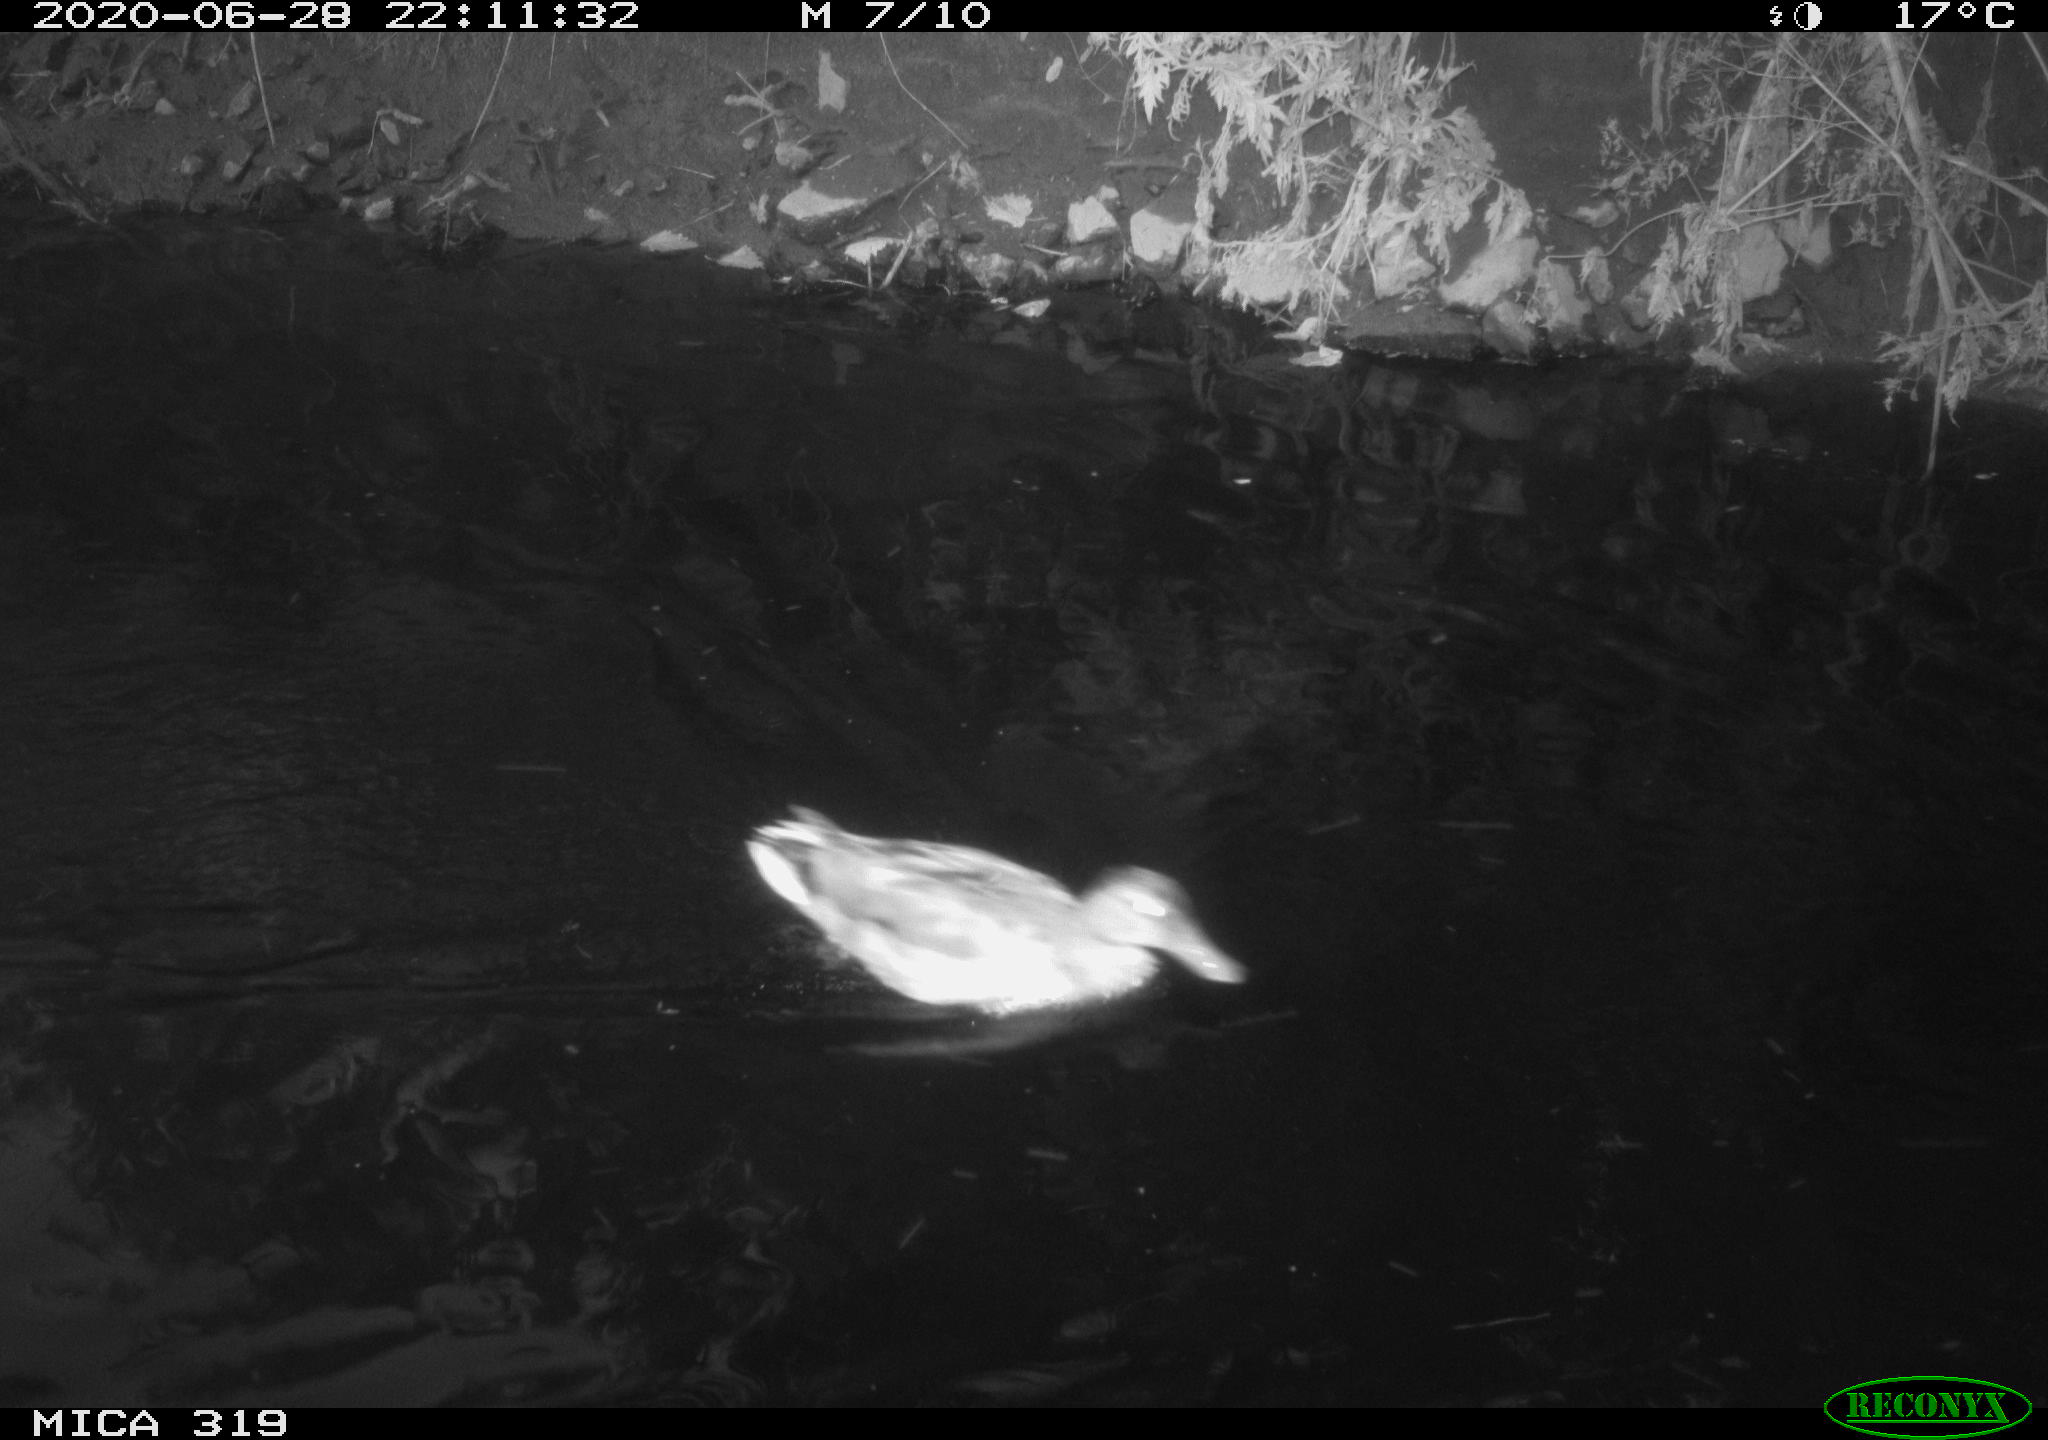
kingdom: Animalia
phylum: Chordata
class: Aves
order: Anseriformes
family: Anatidae
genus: Anas
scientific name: Anas platyrhynchos
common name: Mallard
